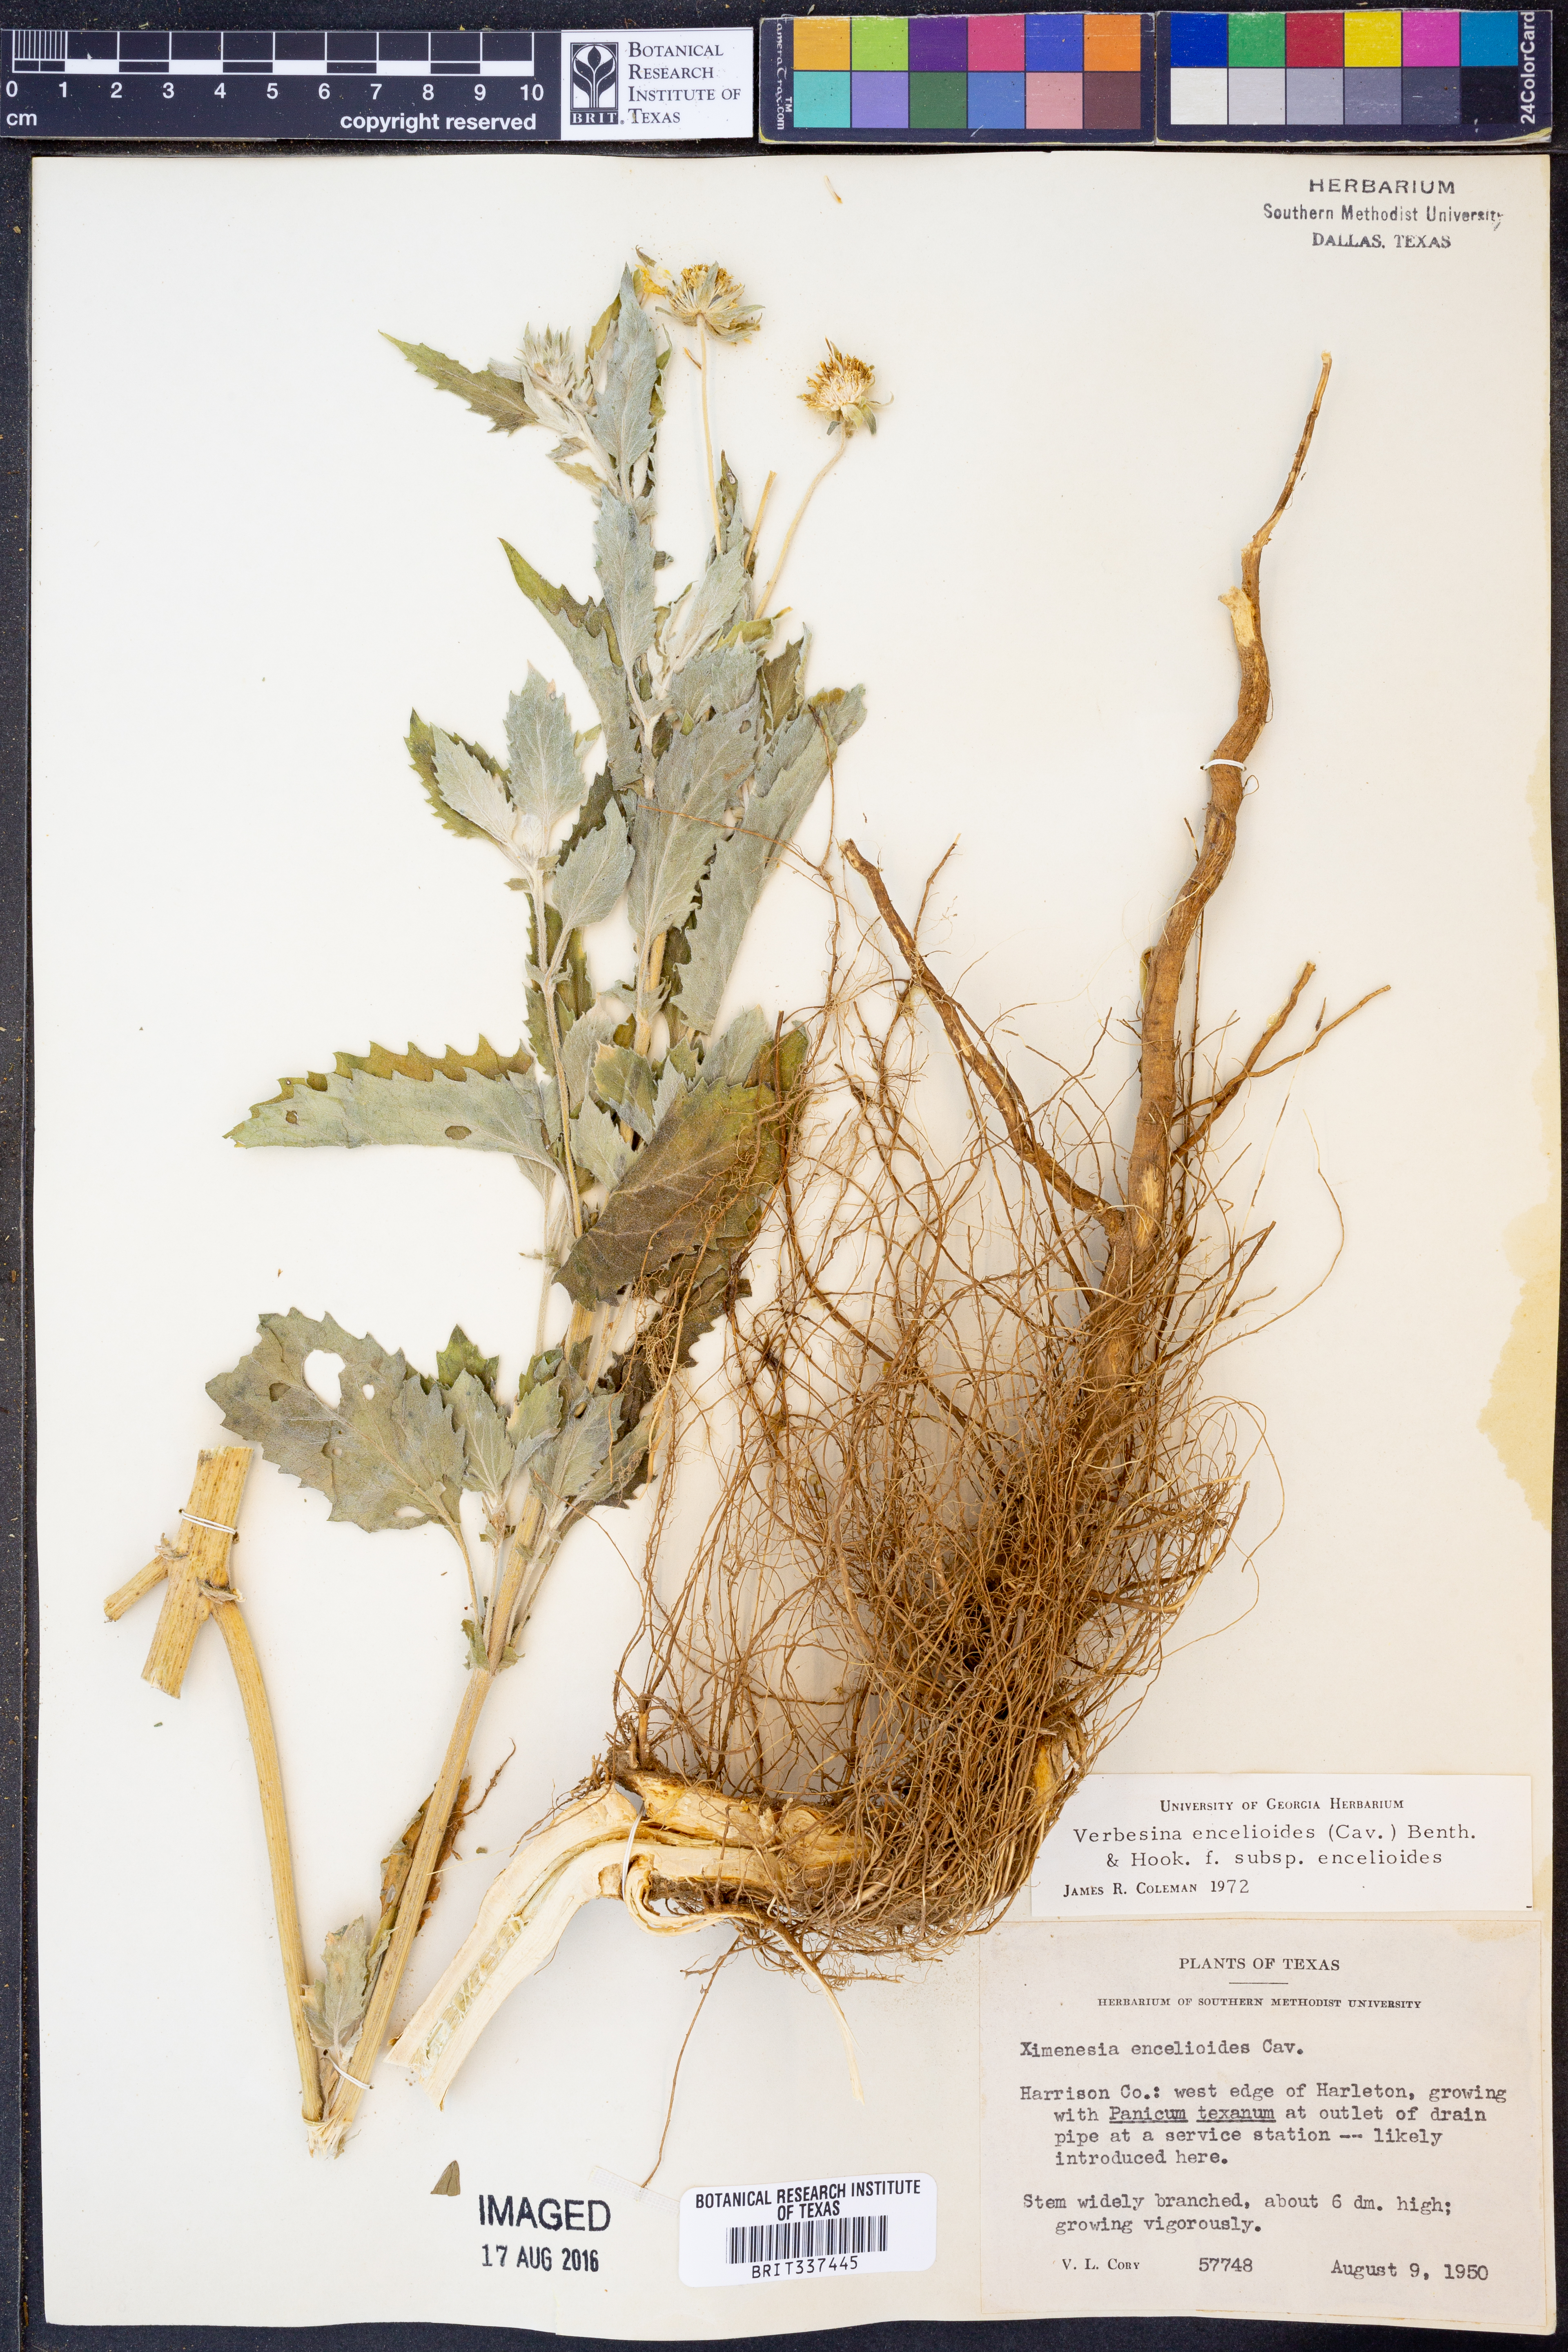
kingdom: Plantae
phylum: Tracheophyta
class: Magnoliopsida
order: Asterales
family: Asteraceae
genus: Verbesina
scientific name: Verbesina encelioides
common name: Golden crownbeard
